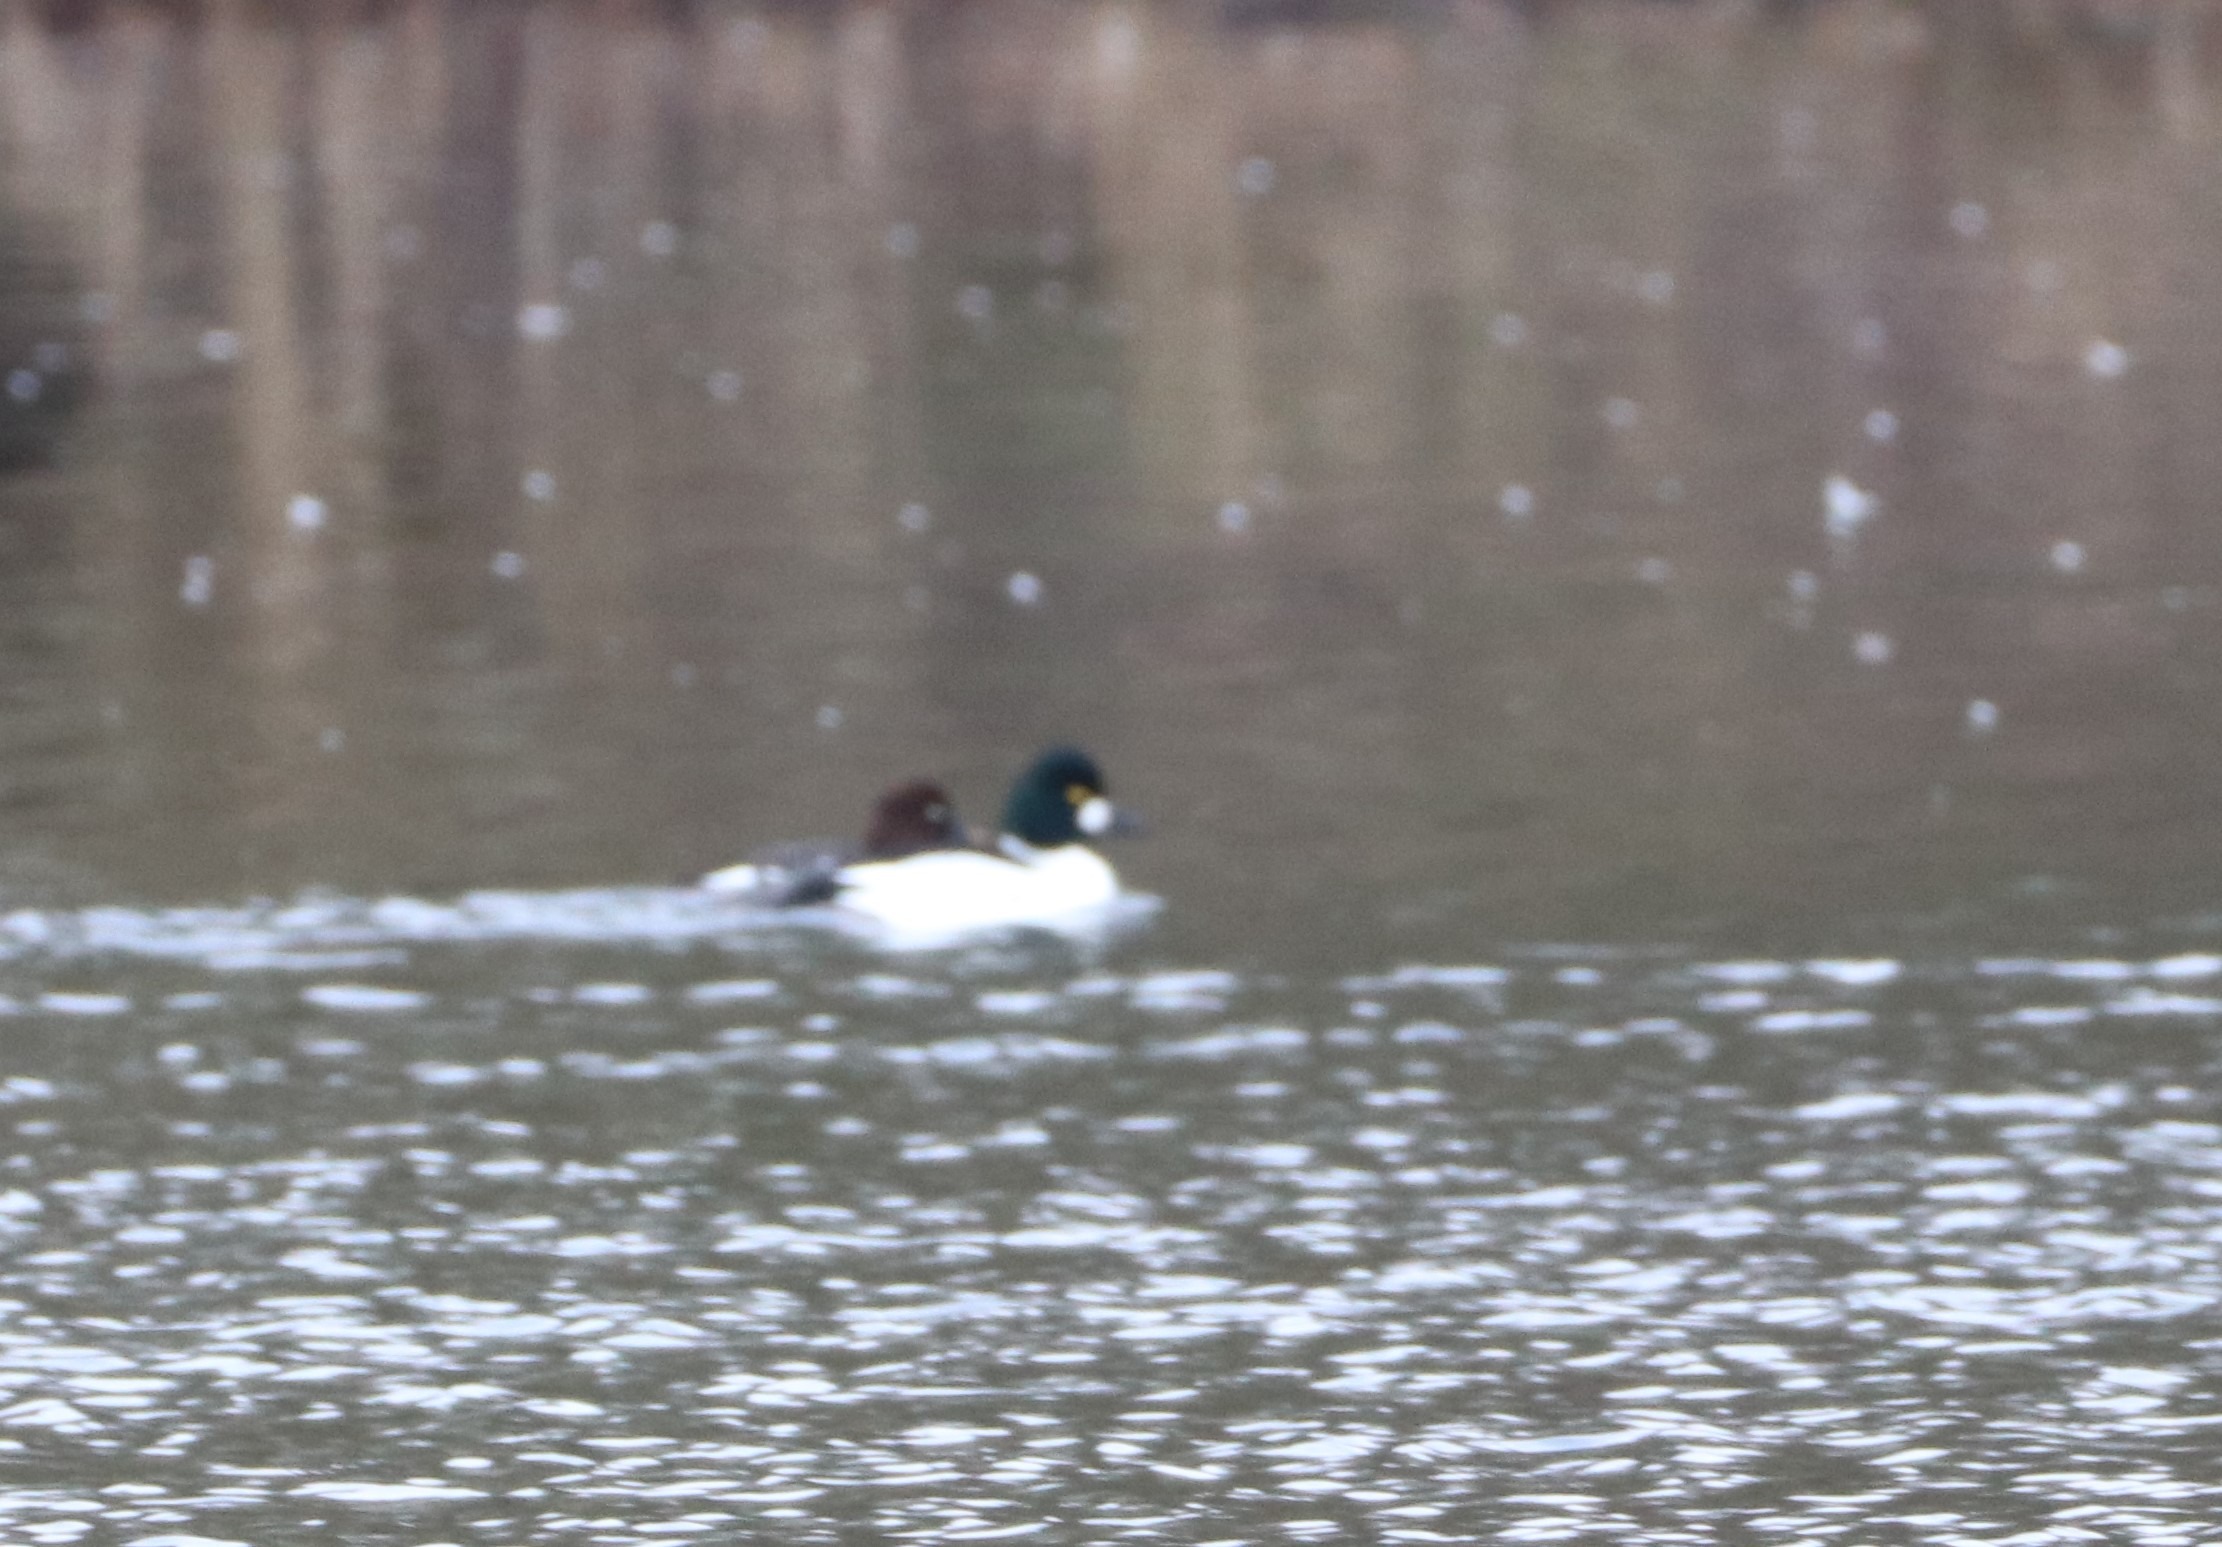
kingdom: Animalia
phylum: Chordata
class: Aves
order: Anseriformes
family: Anatidae
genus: Bucephala
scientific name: Bucephala clangula
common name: Hvinand
